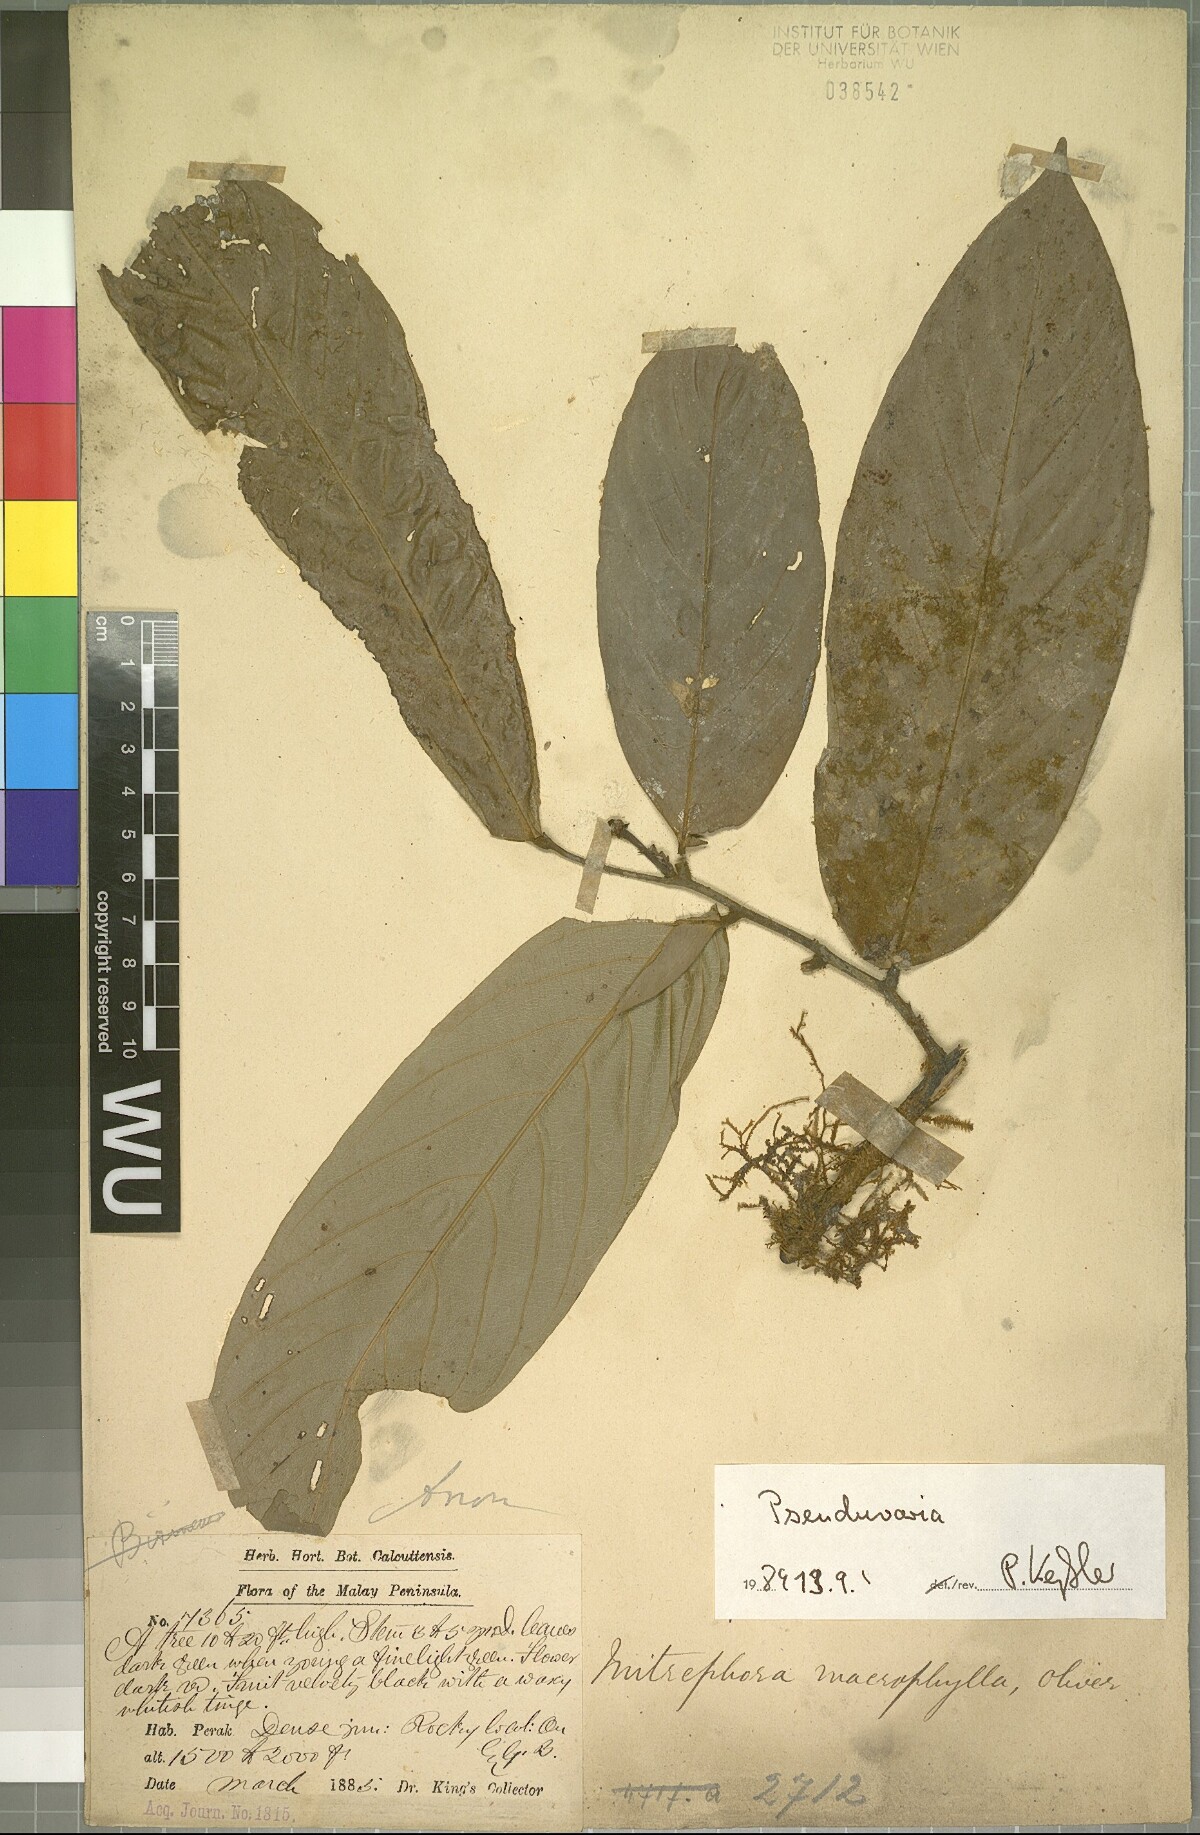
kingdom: Plantae
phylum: Tracheophyta
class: Magnoliopsida
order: Magnoliales
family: Annonaceae
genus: Pseuduvaria
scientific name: Pseuduvaria
